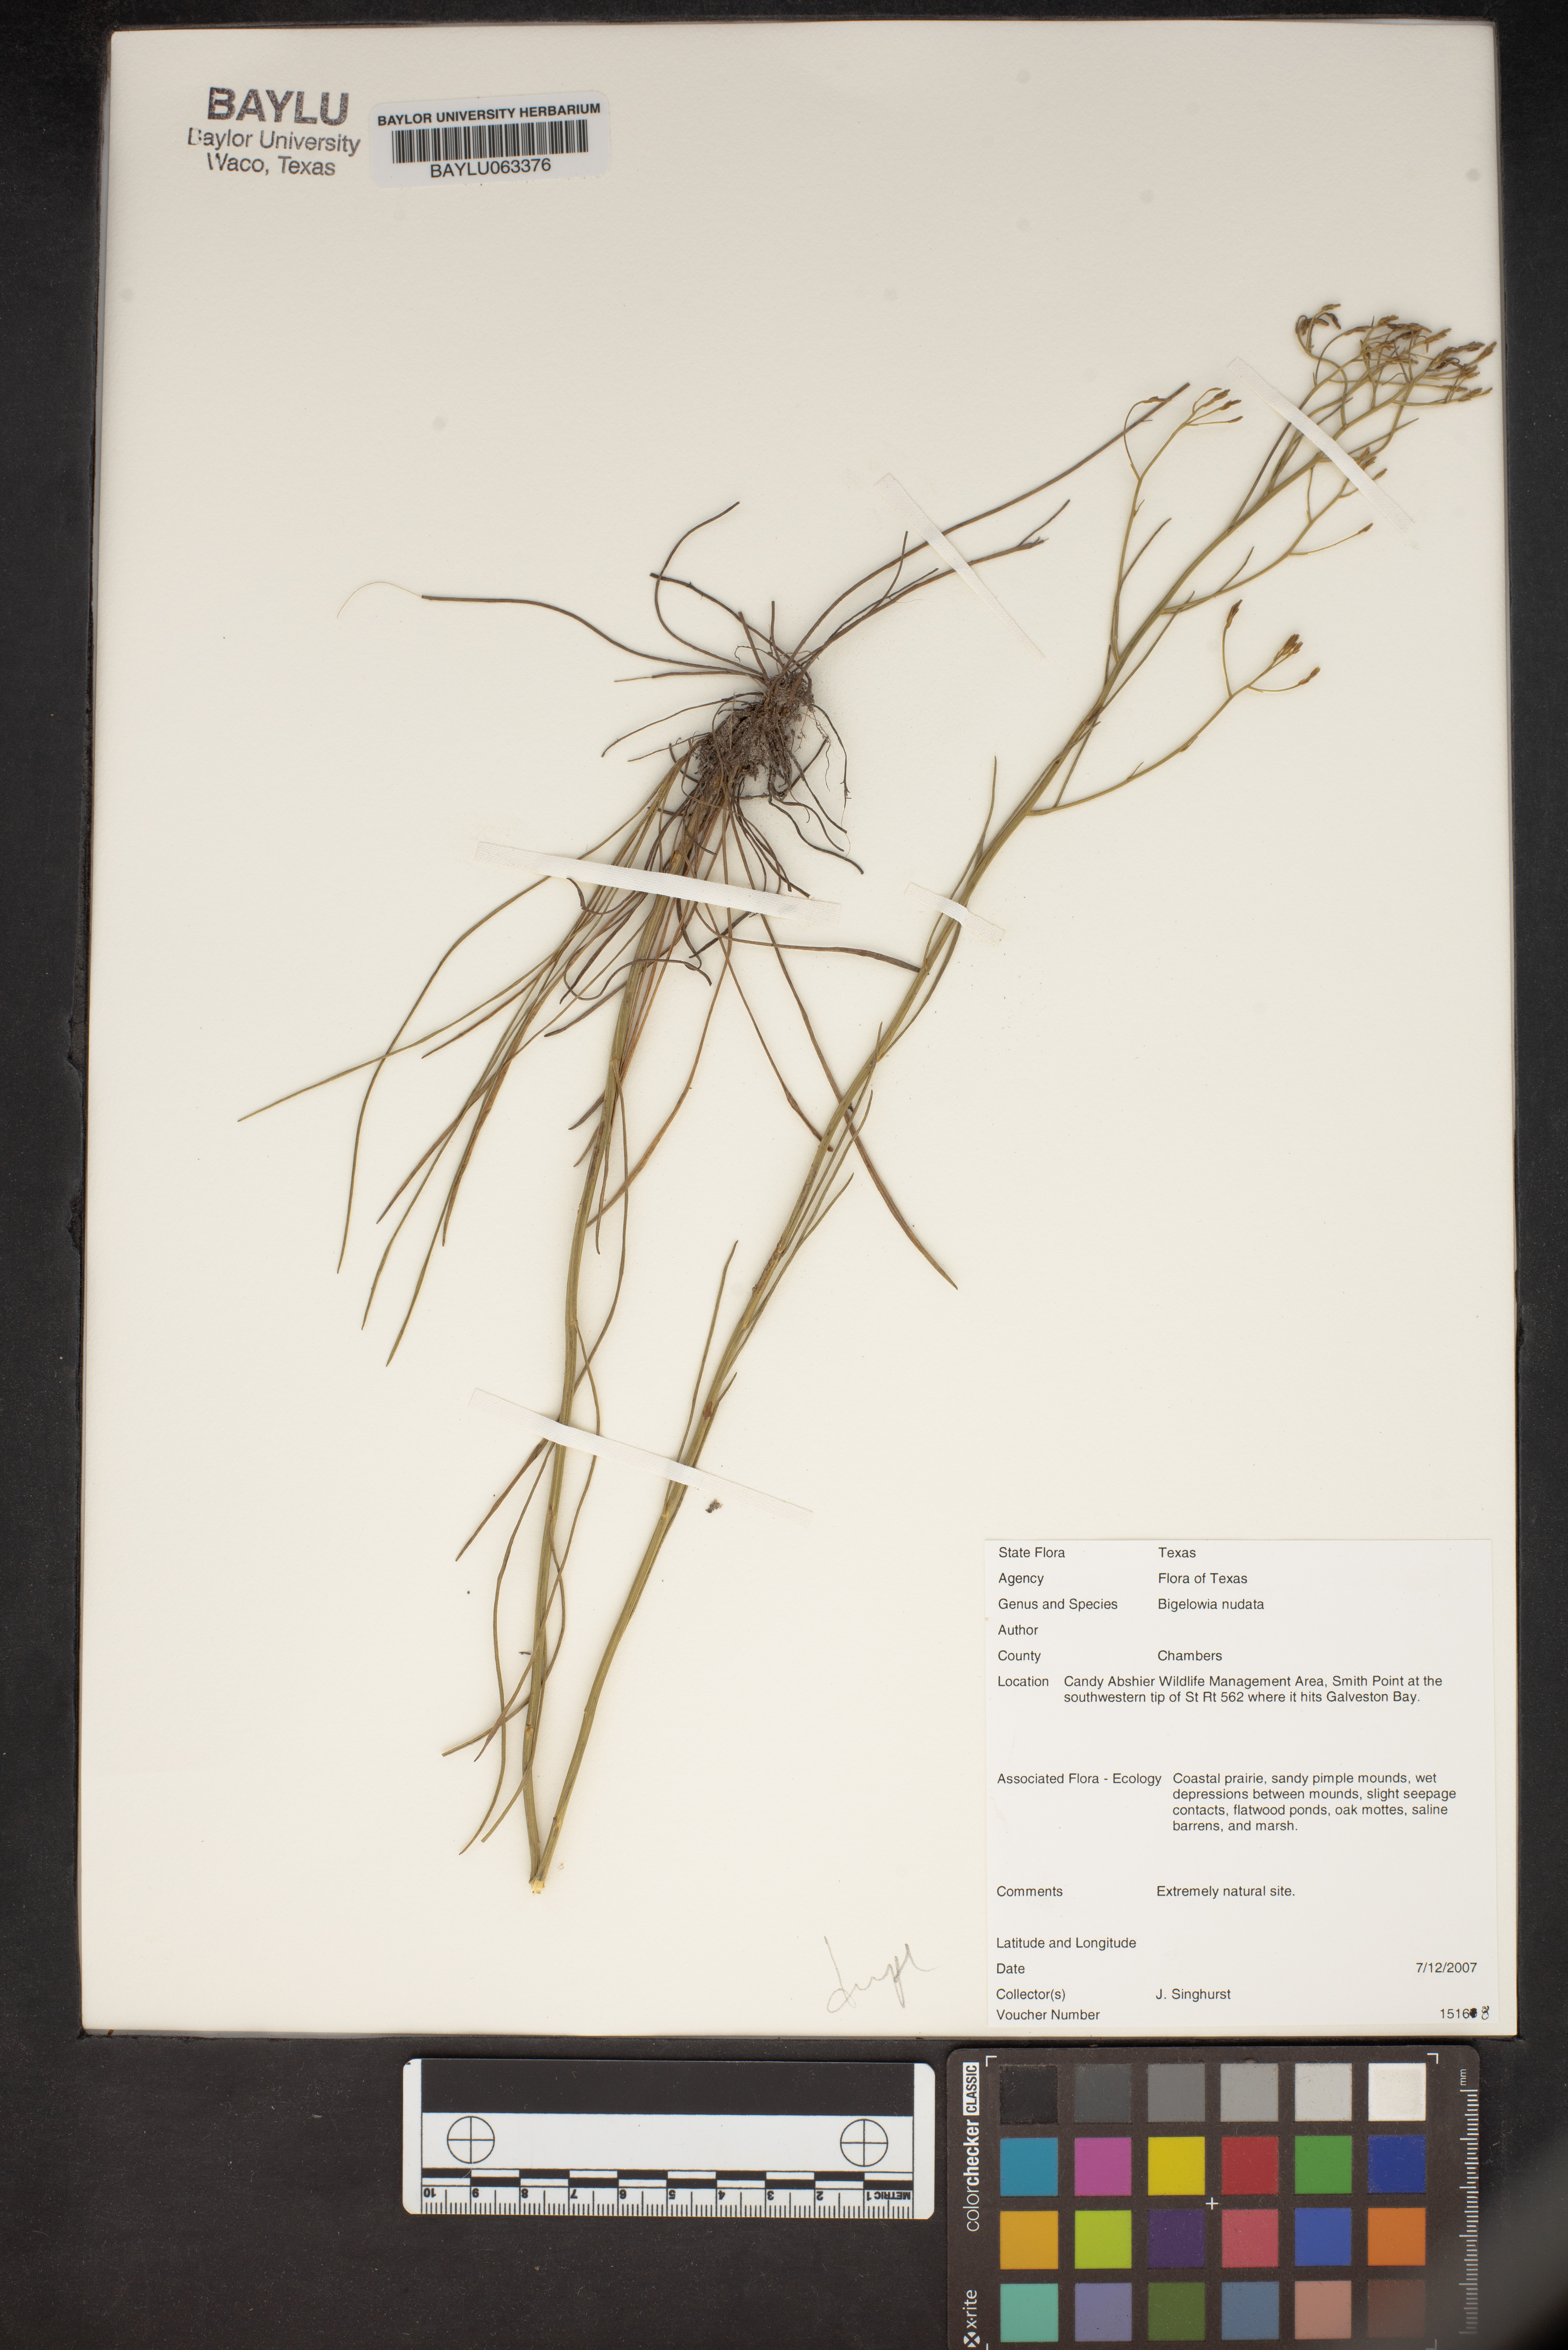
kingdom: Plantae
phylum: Tracheophyta
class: Magnoliopsida
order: Asterales
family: Asteraceae
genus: Bigelowia
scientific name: Bigelowia nudata
